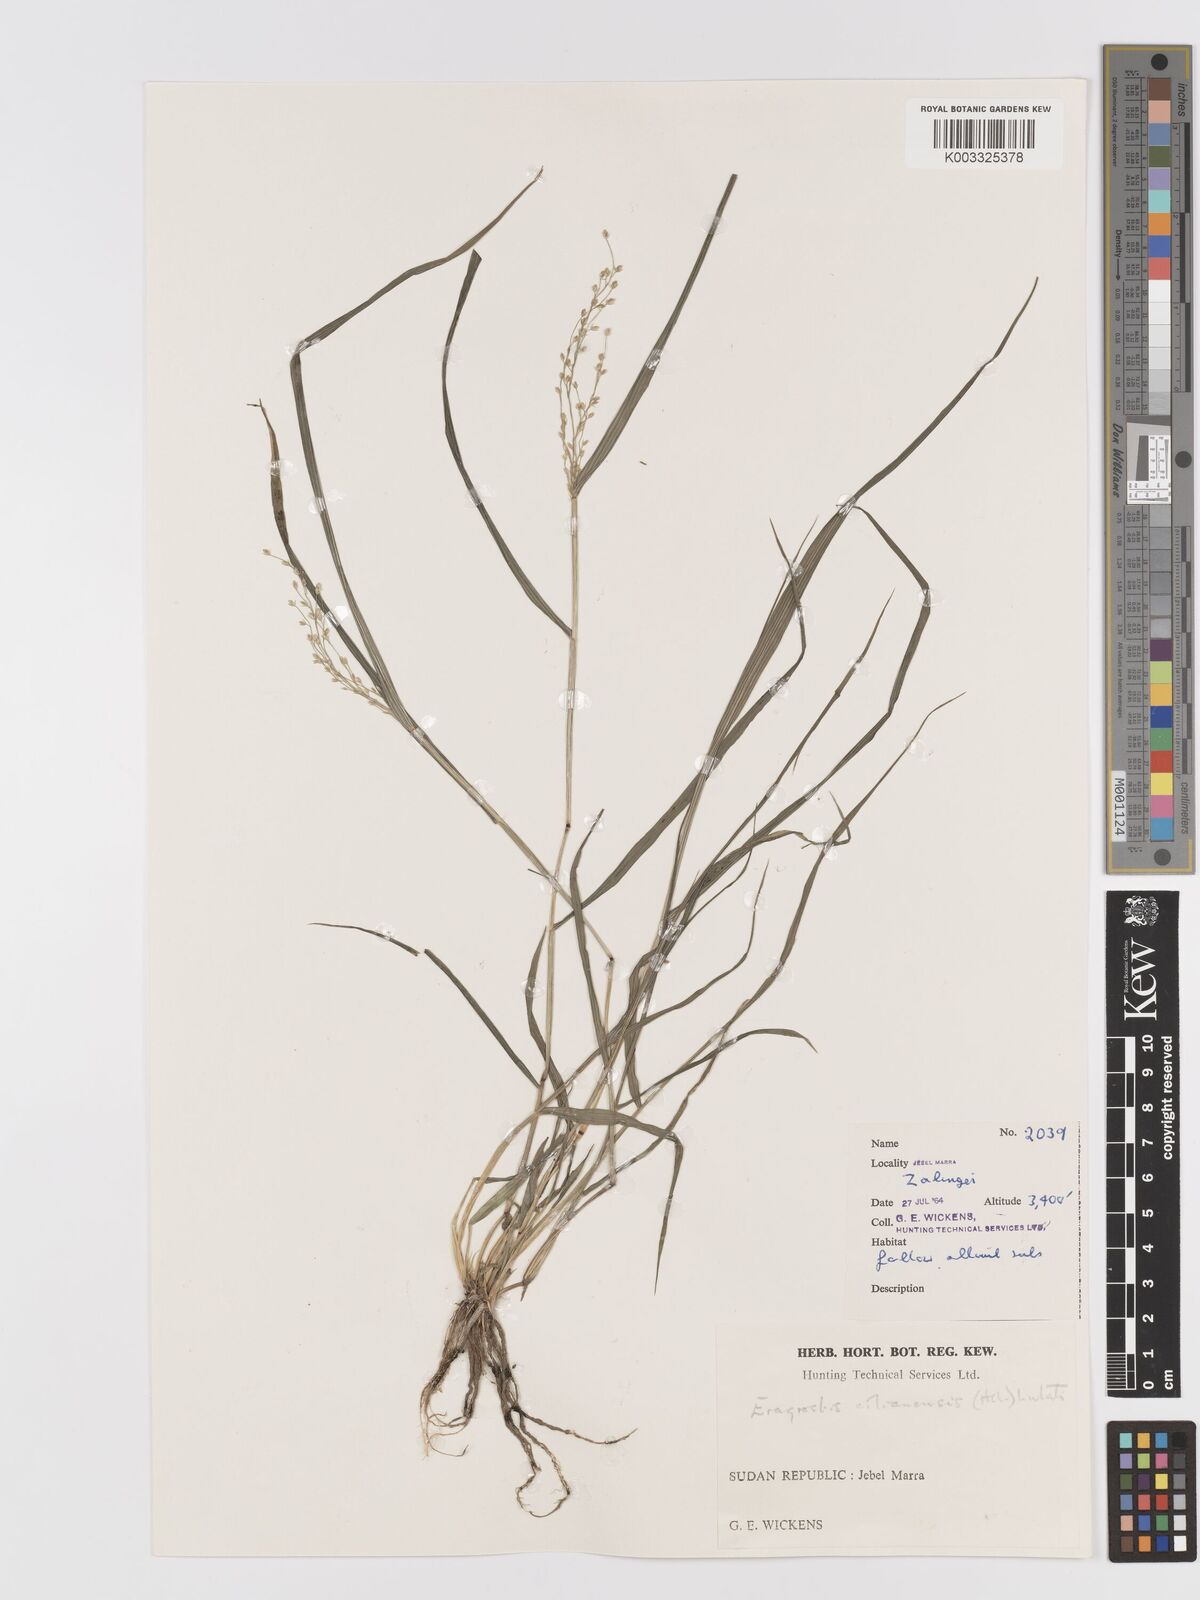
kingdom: Plantae
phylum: Tracheophyta
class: Liliopsida
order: Poales
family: Poaceae
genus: Eragrostis
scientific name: Eragrostis cilianensis
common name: Stinkgrass
